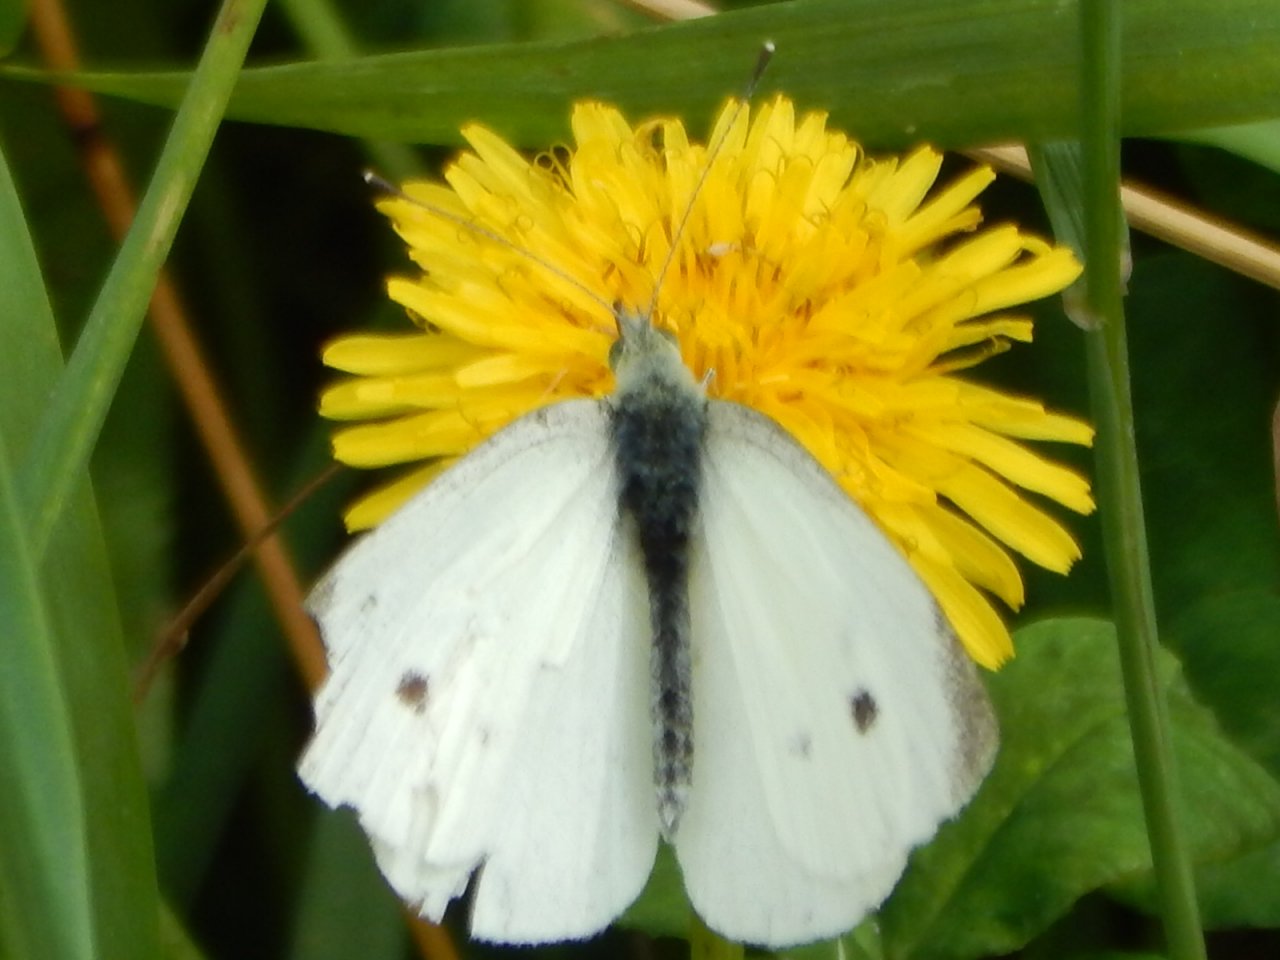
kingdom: Animalia
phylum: Arthropoda
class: Insecta
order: Lepidoptera
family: Pieridae
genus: Pieris
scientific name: Pieris rapae
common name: Cabbage White
